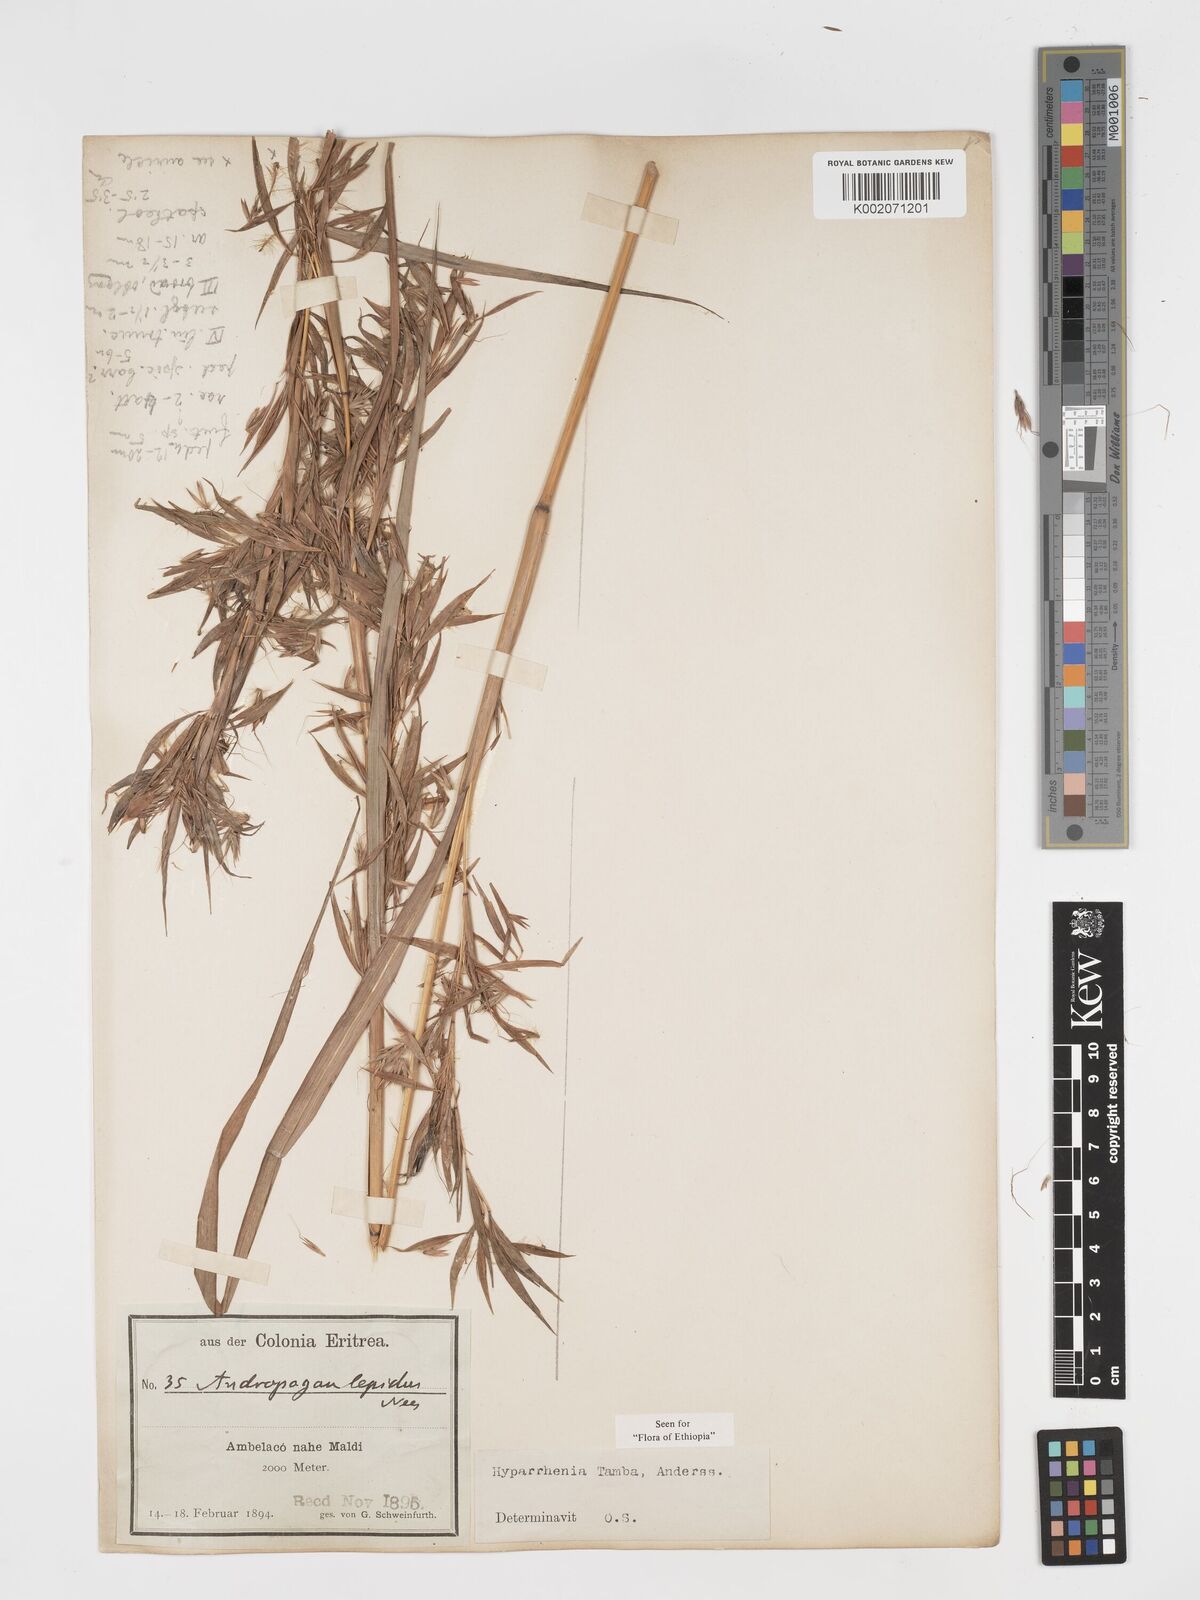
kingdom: Plantae
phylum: Tracheophyta
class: Liliopsida
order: Poales
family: Poaceae
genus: Hyparrhenia
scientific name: Hyparrhenia tamba
